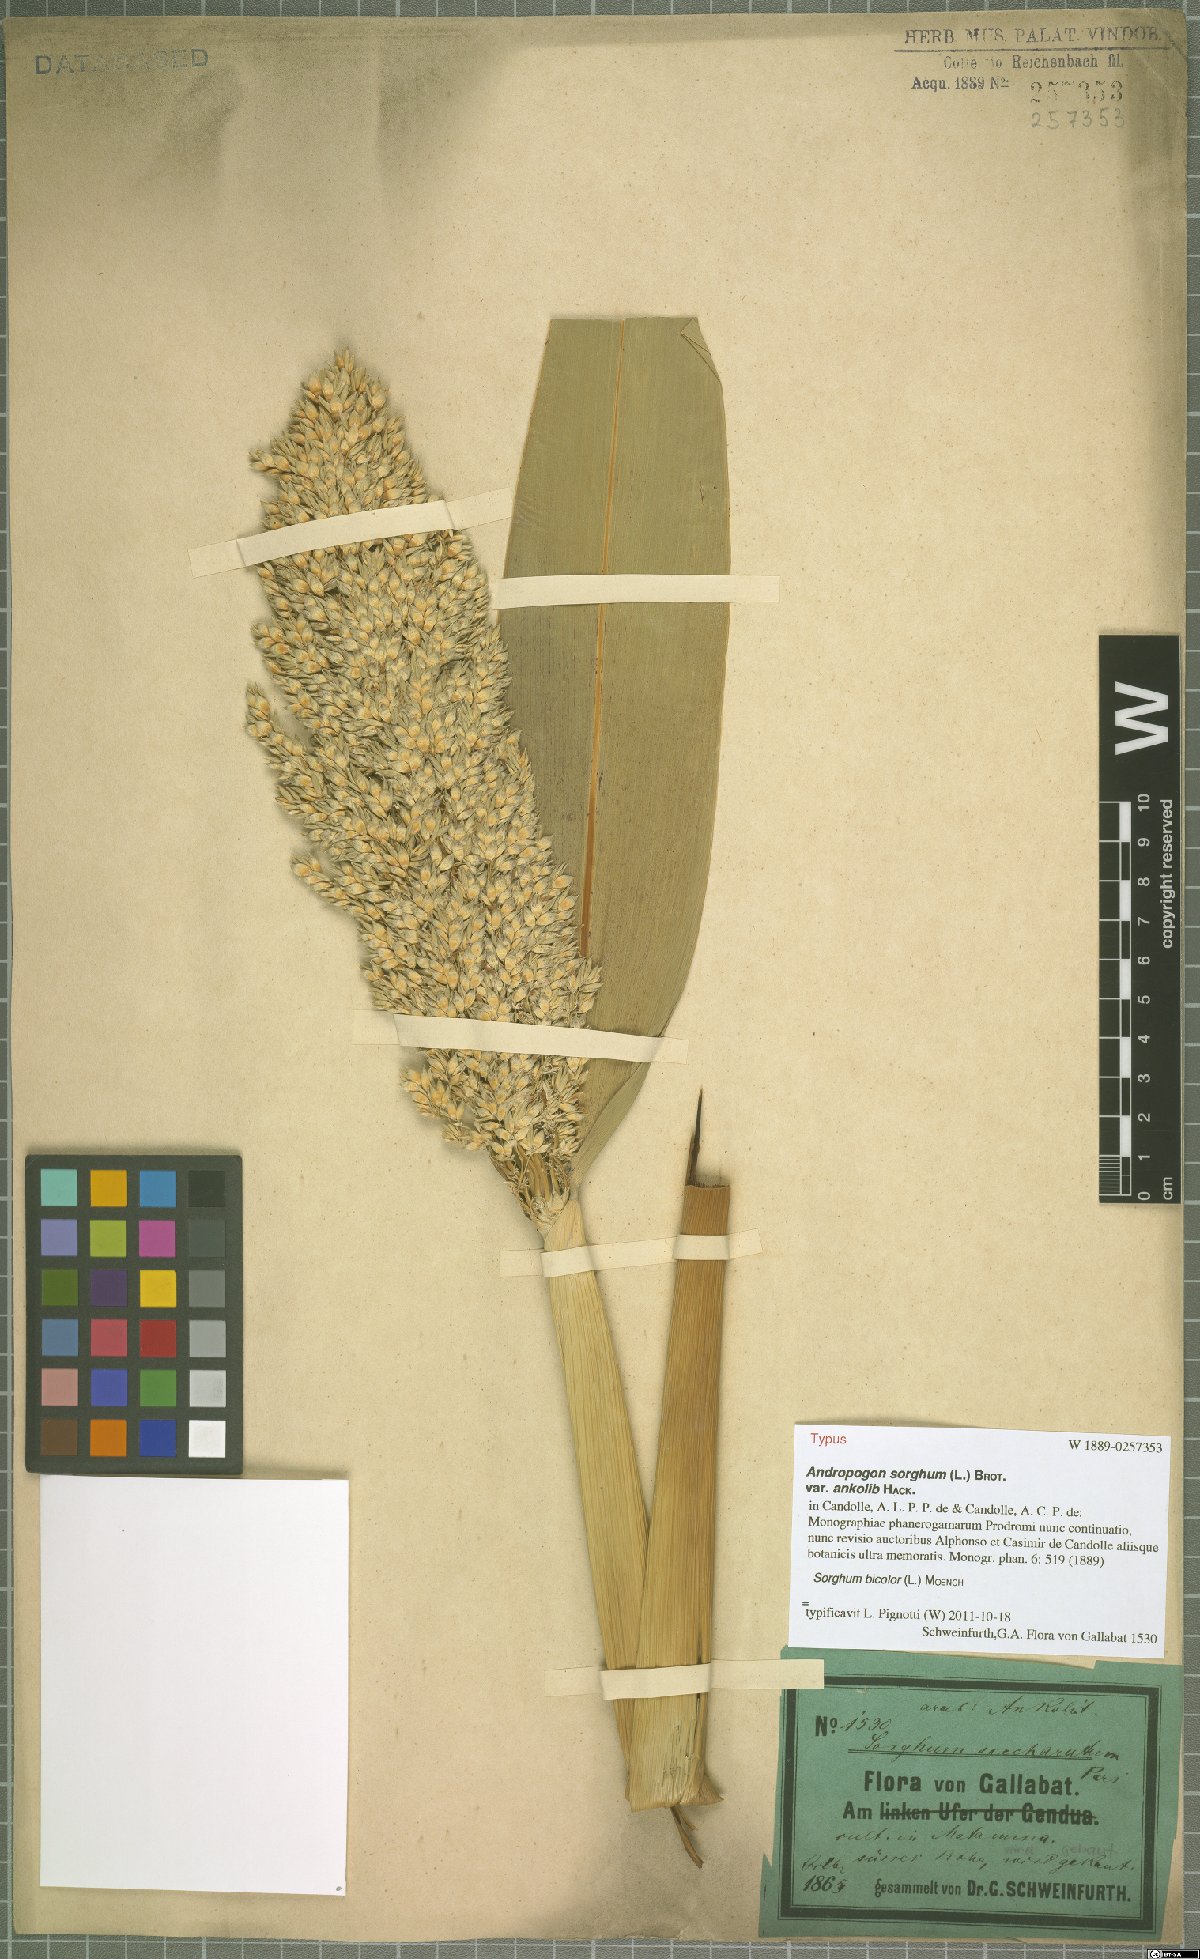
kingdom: Plantae
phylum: Tracheophyta
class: Liliopsida
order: Poales
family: Poaceae
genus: Sorghum
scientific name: Sorghum bicolor
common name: Sorghum
